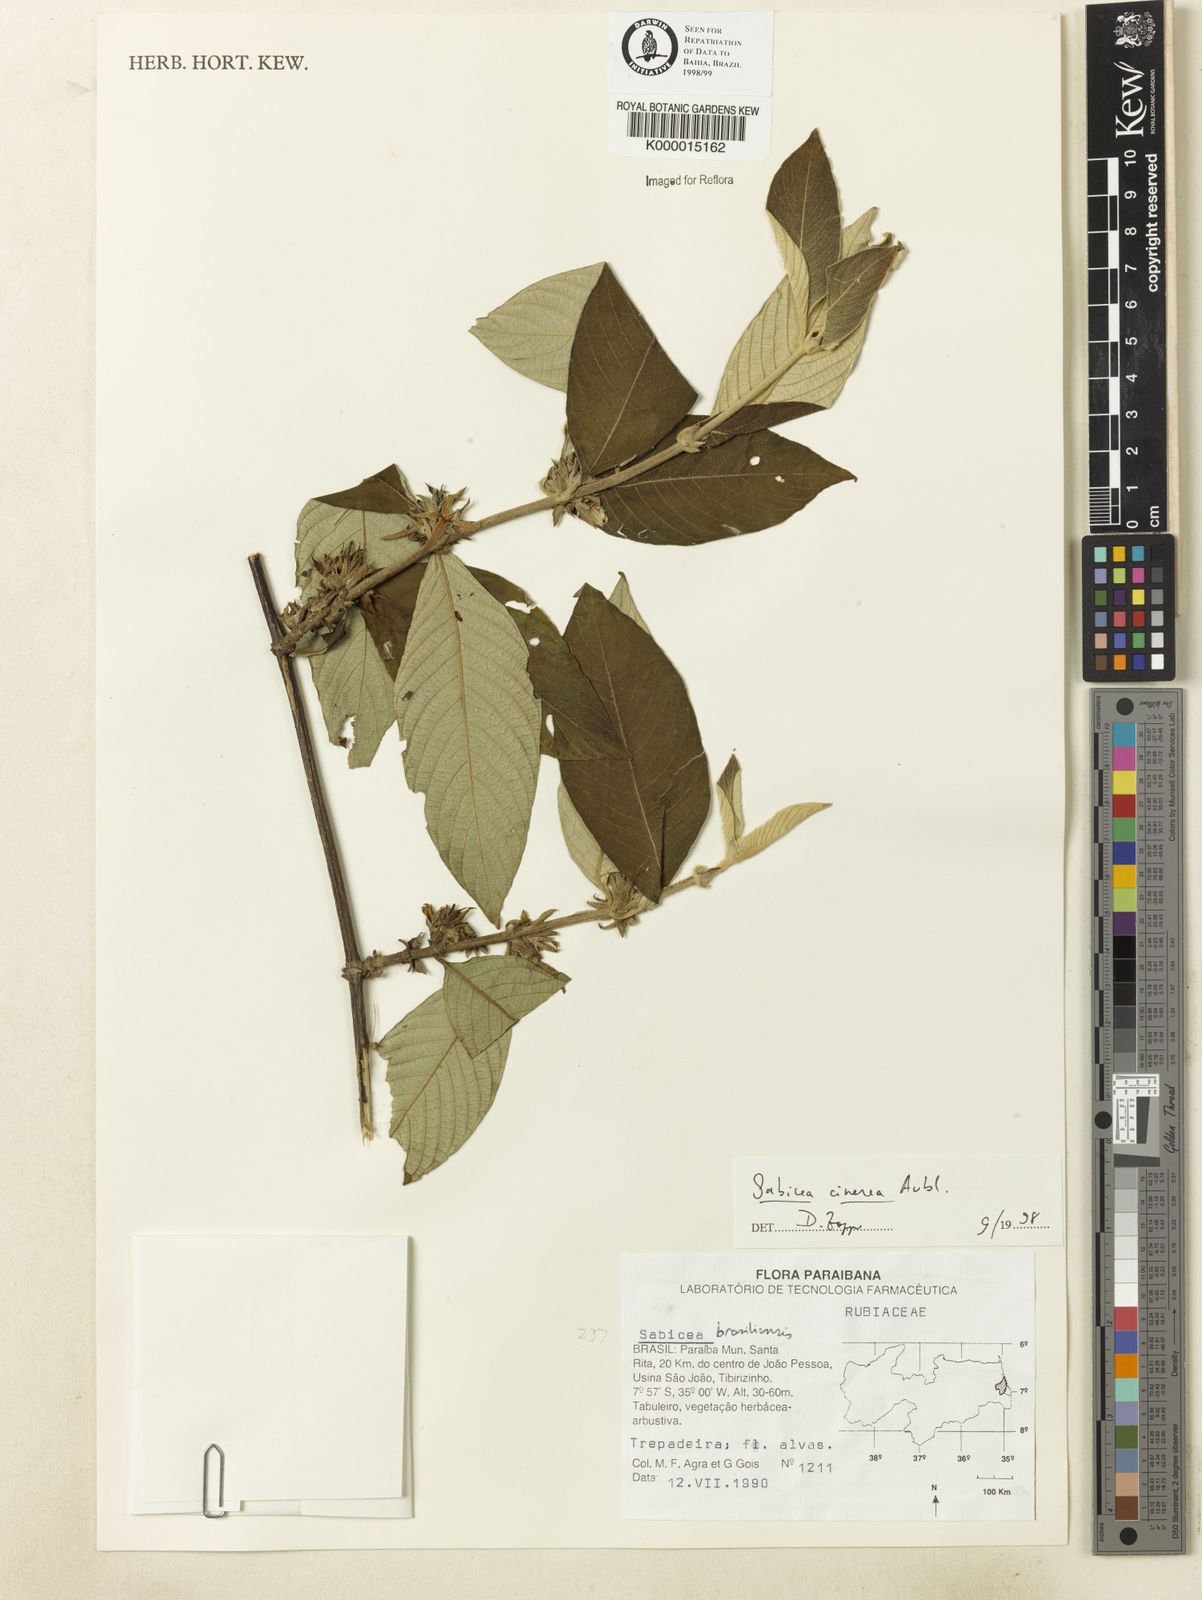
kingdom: Plantae
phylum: Tracheophyta
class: Magnoliopsida
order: Gentianales
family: Rubiaceae
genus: Sabicea
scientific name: Sabicea cinerea
